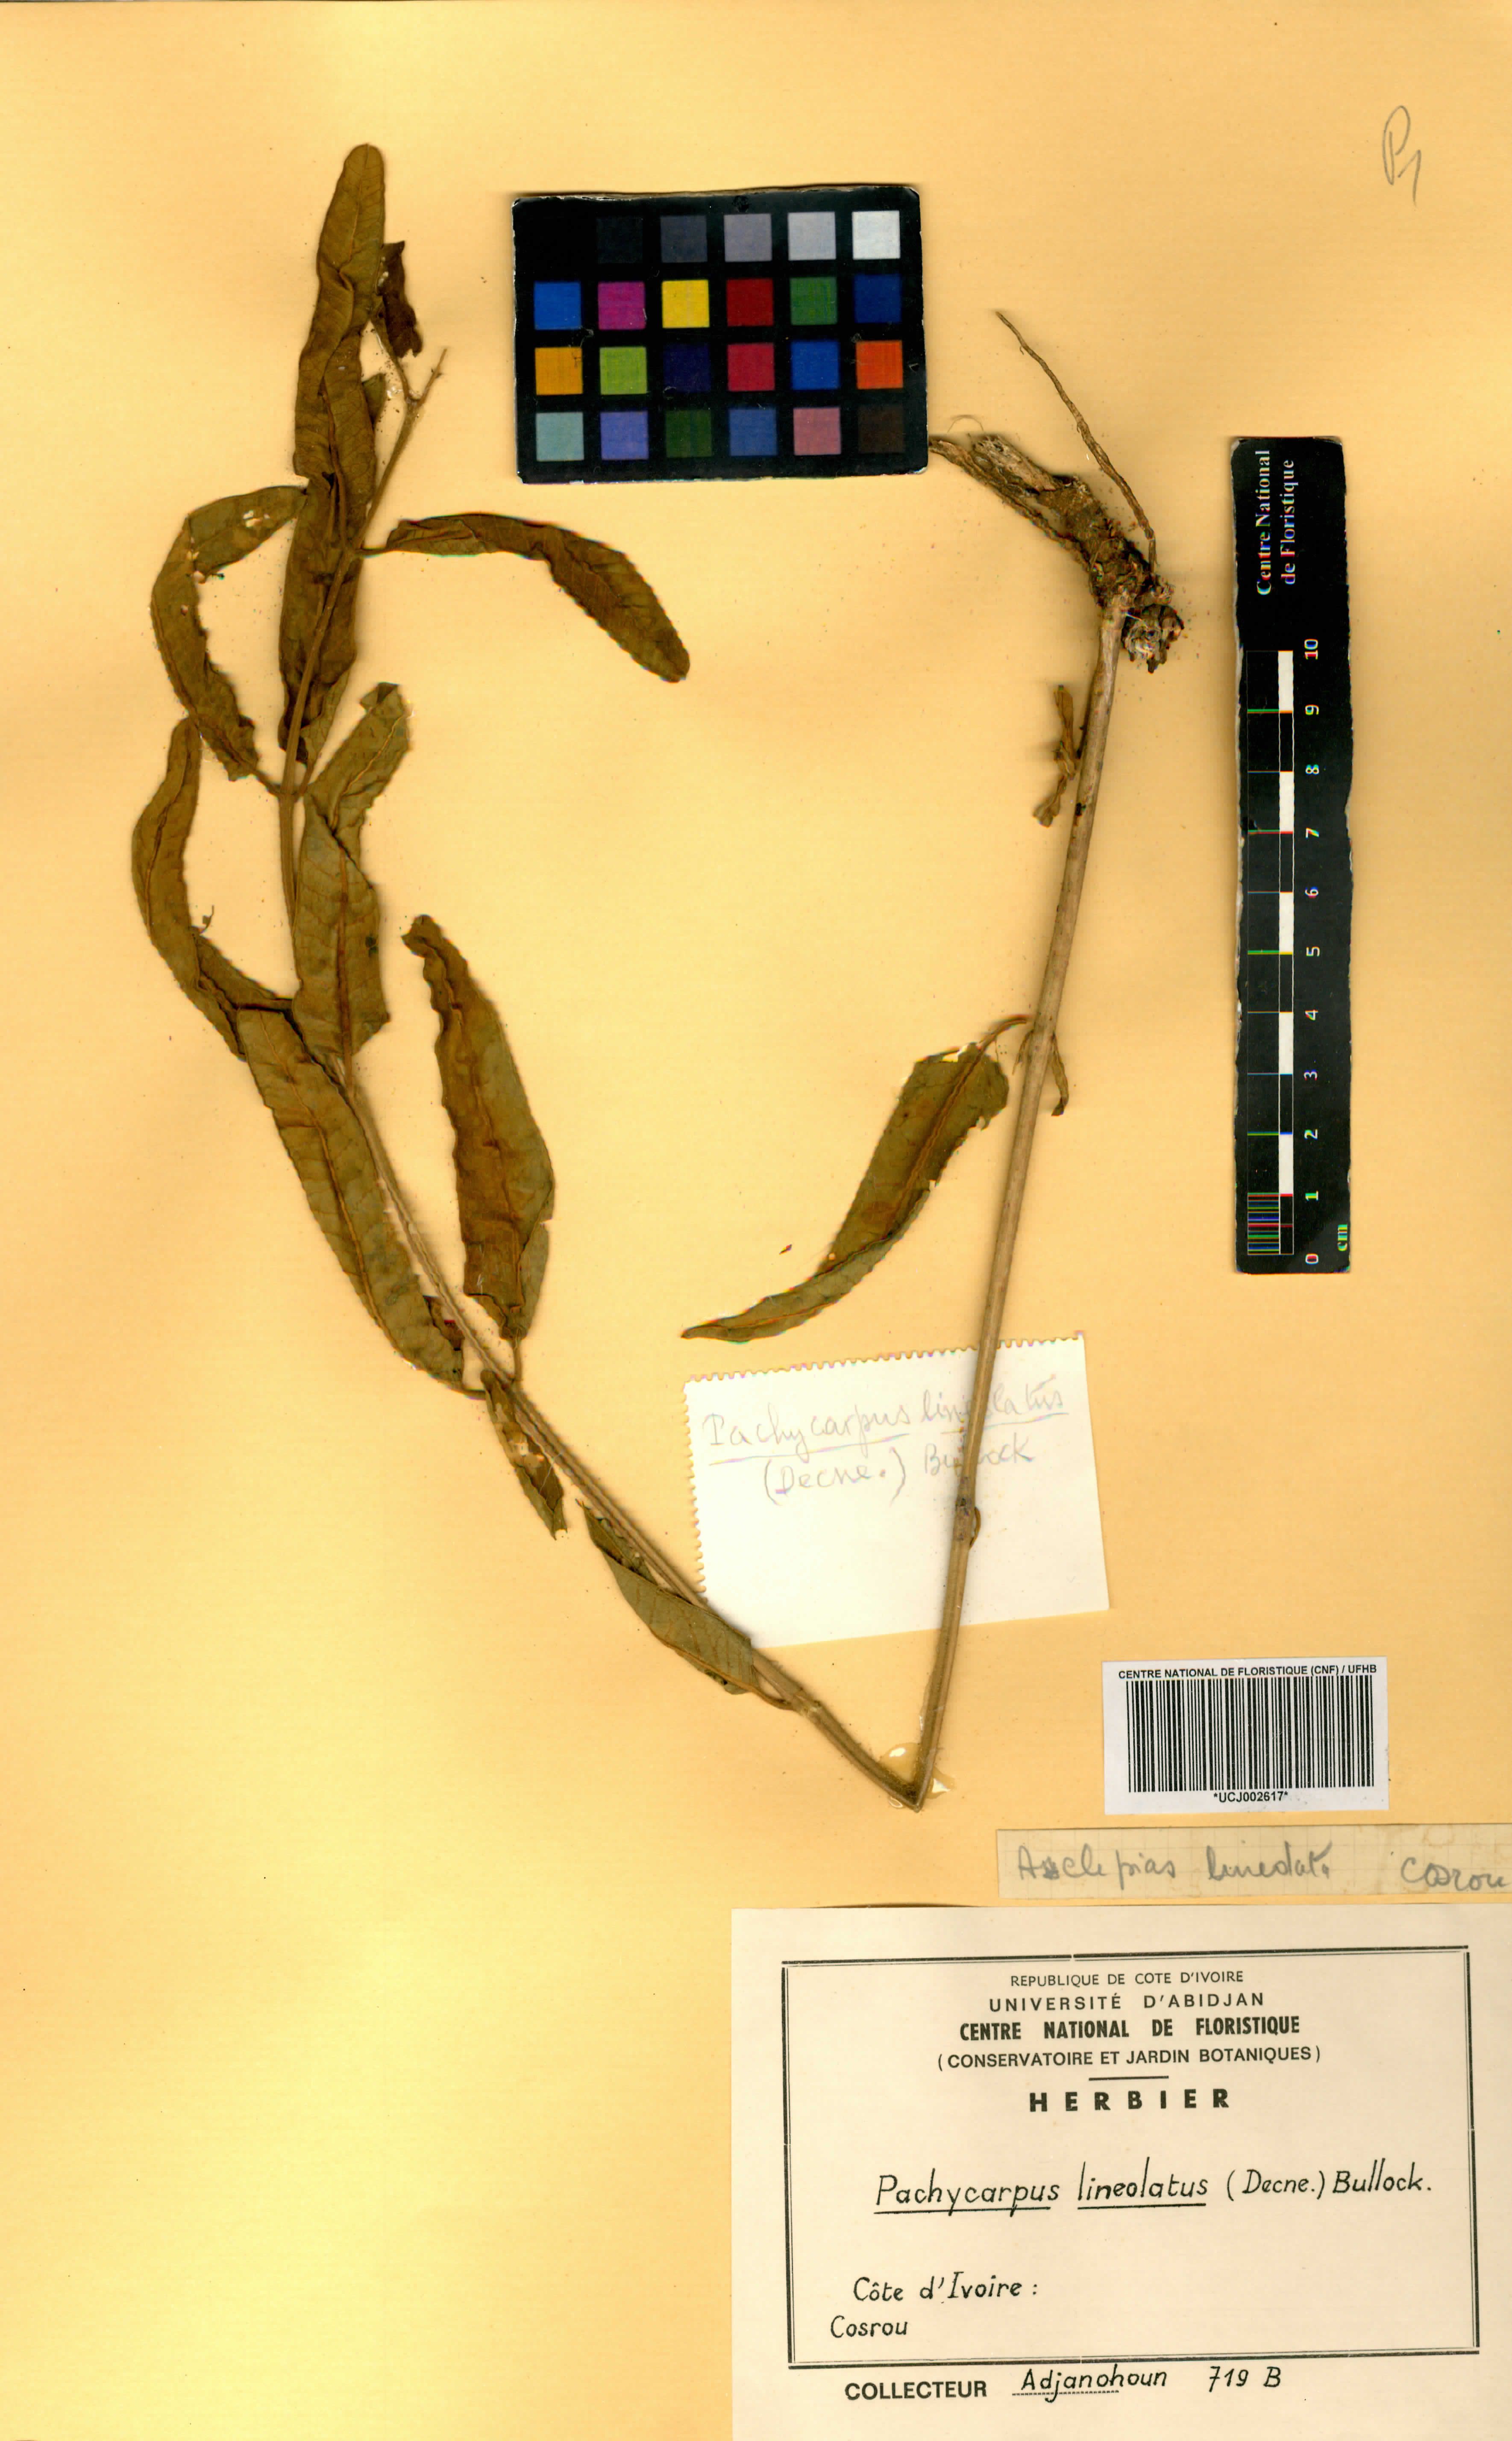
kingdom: Plantae
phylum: Tracheophyta
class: Magnoliopsida
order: Gentianales
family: Apocynaceae
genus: Pachycarpus
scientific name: Pachycarpus lineolatus
